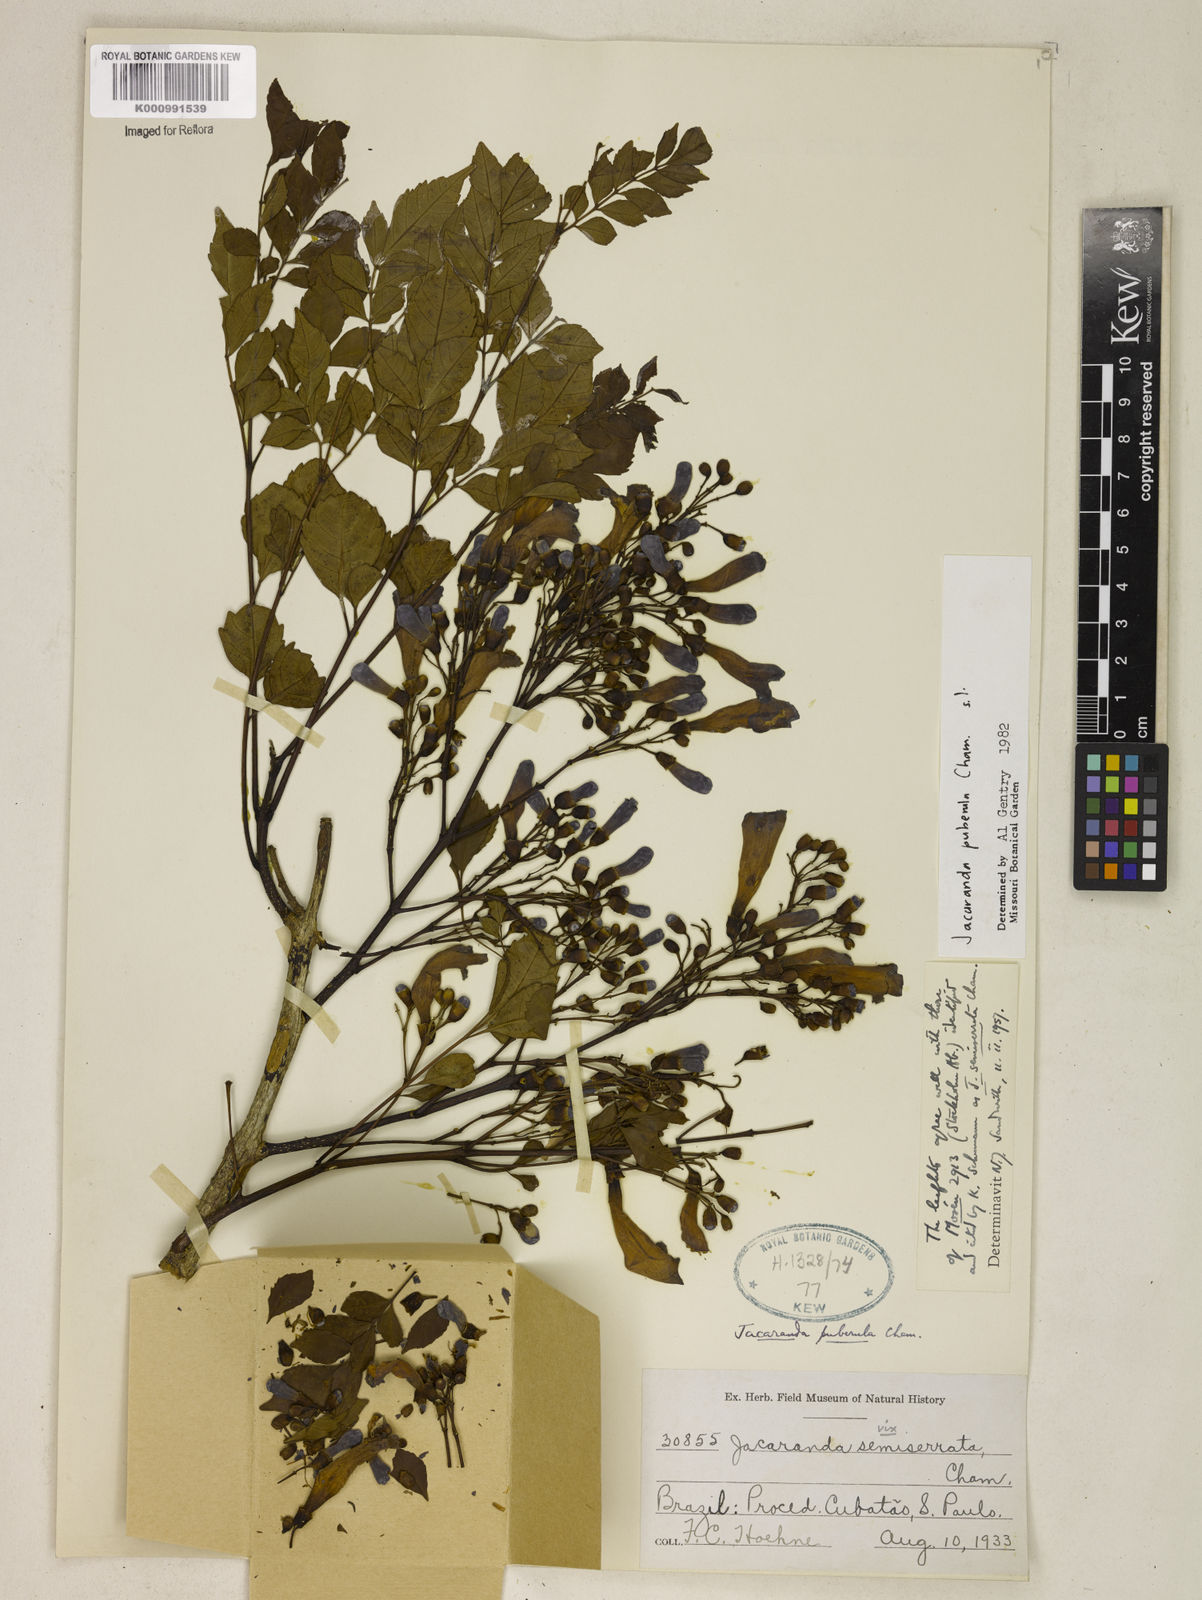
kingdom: Plantae
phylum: Tracheophyta
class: Magnoliopsida
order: Lamiales
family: Verbenaceae
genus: Lippia
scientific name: Lippia florida
